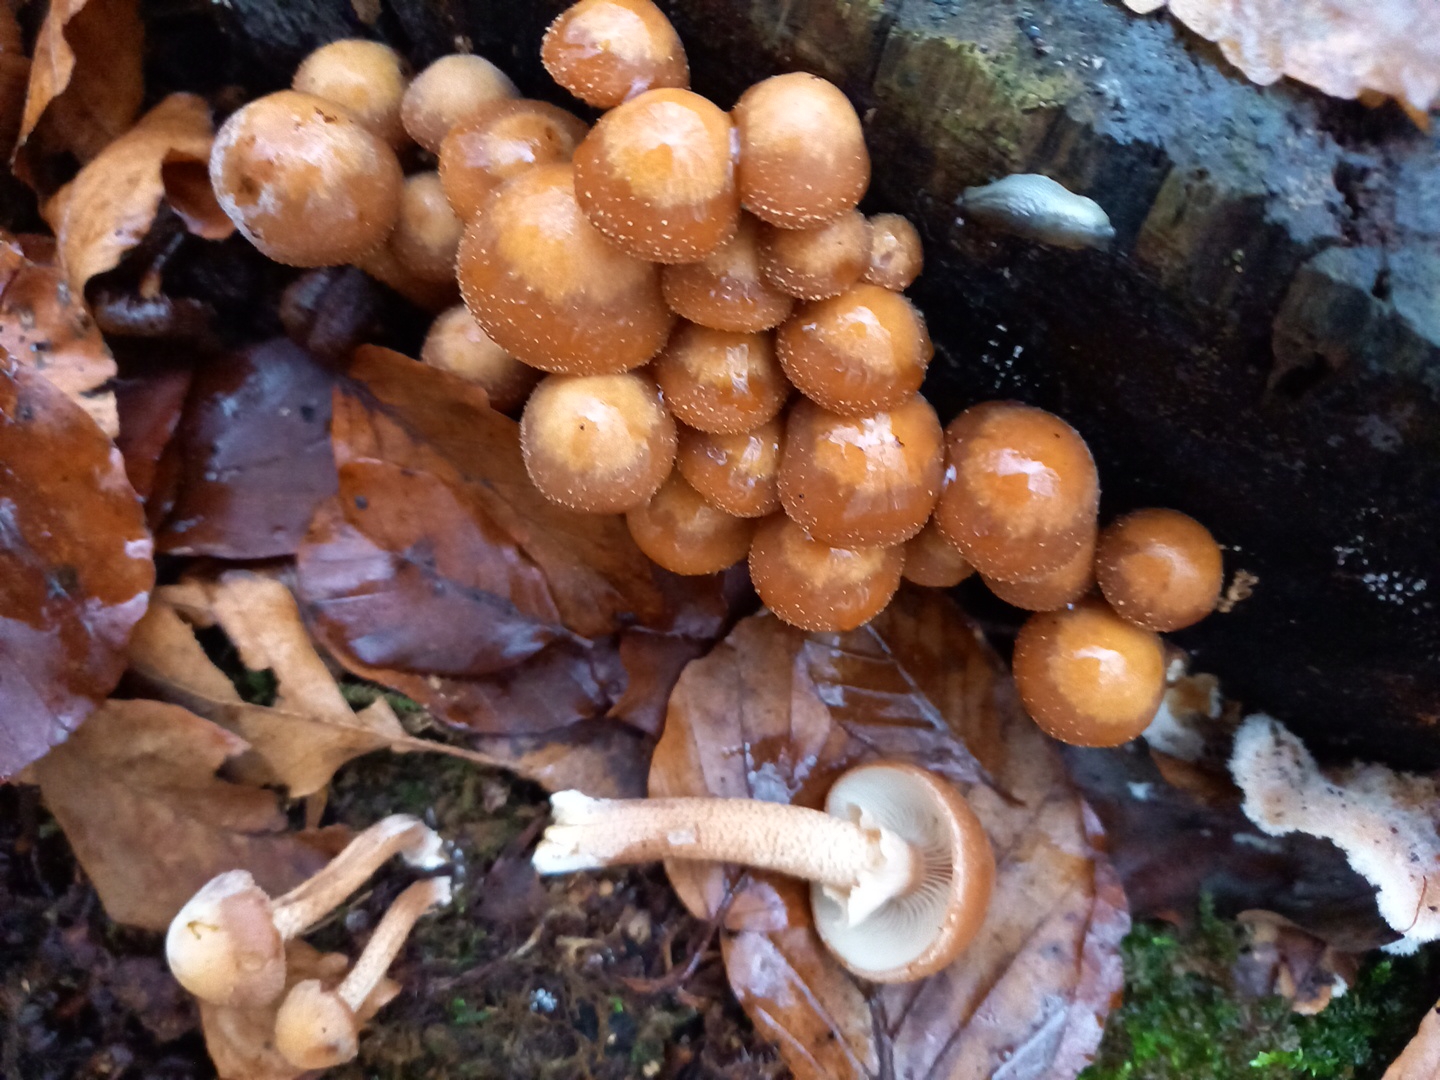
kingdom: Fungi
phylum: Basidiomycota
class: Agaricomycetes
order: Agaricales
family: Strophariaceae
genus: Kuehneromyces
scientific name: Kuehneromyces mutabilis
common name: foranderlig skælhat
